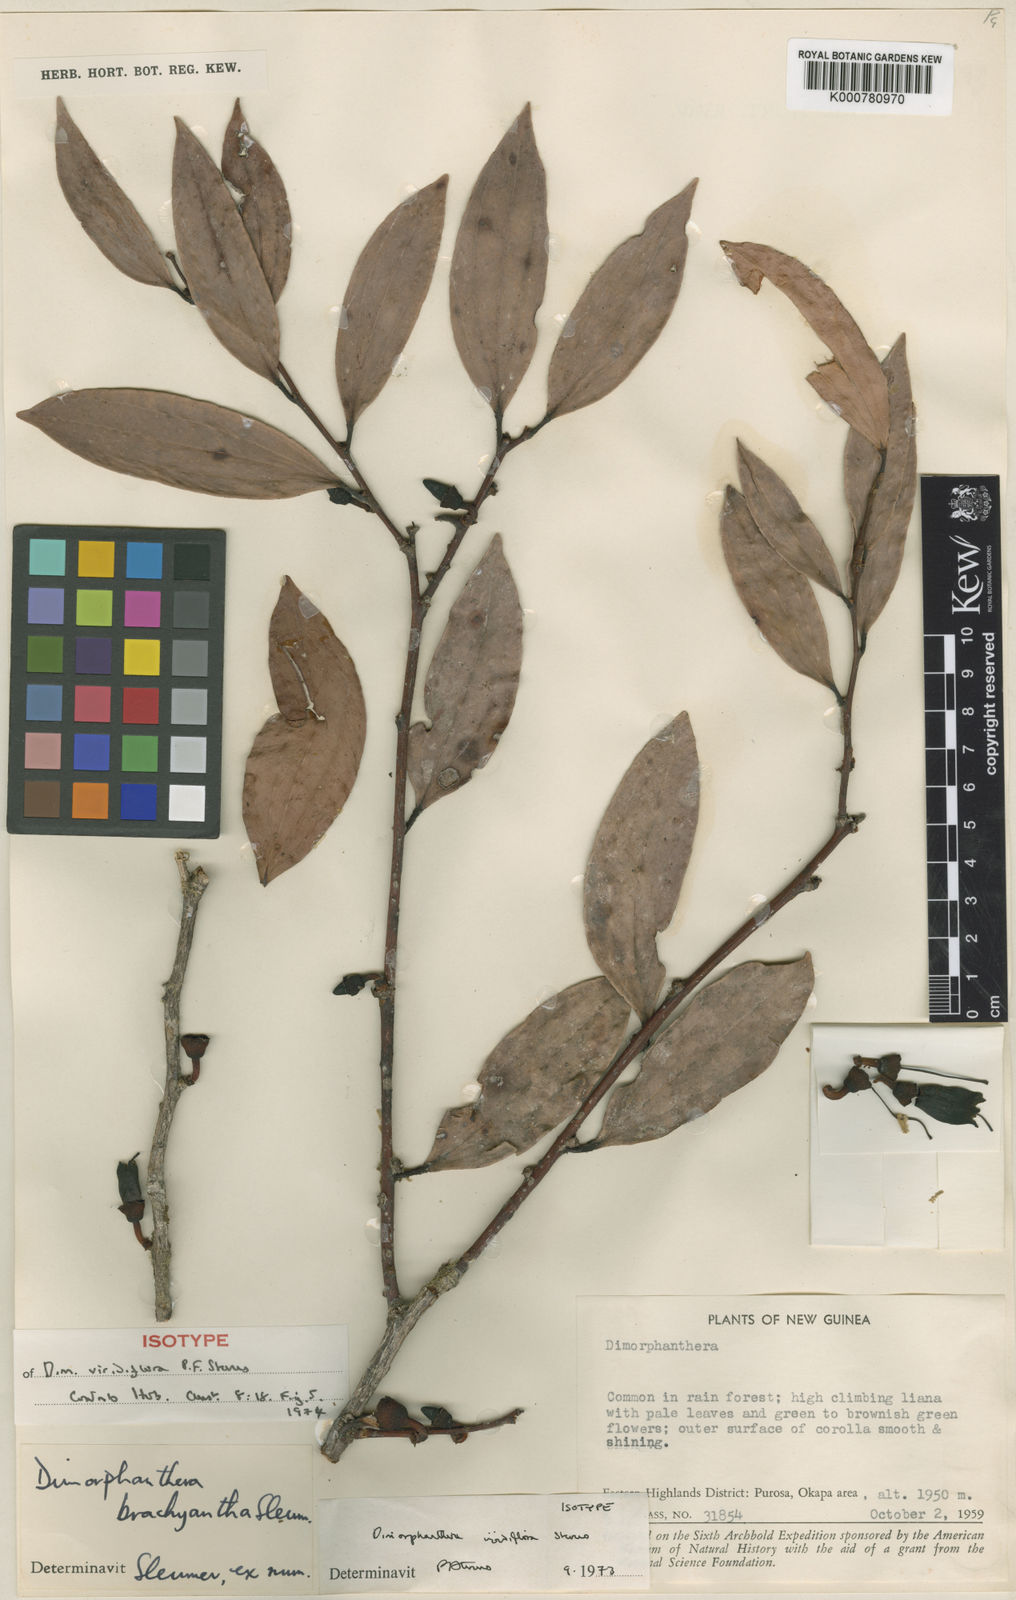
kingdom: Plantae
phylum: Tracheophyta
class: Magnoliopsida
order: Ericales
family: Ericaceae
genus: Dimorphanthera
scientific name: Dimorphanthera viridiflora
